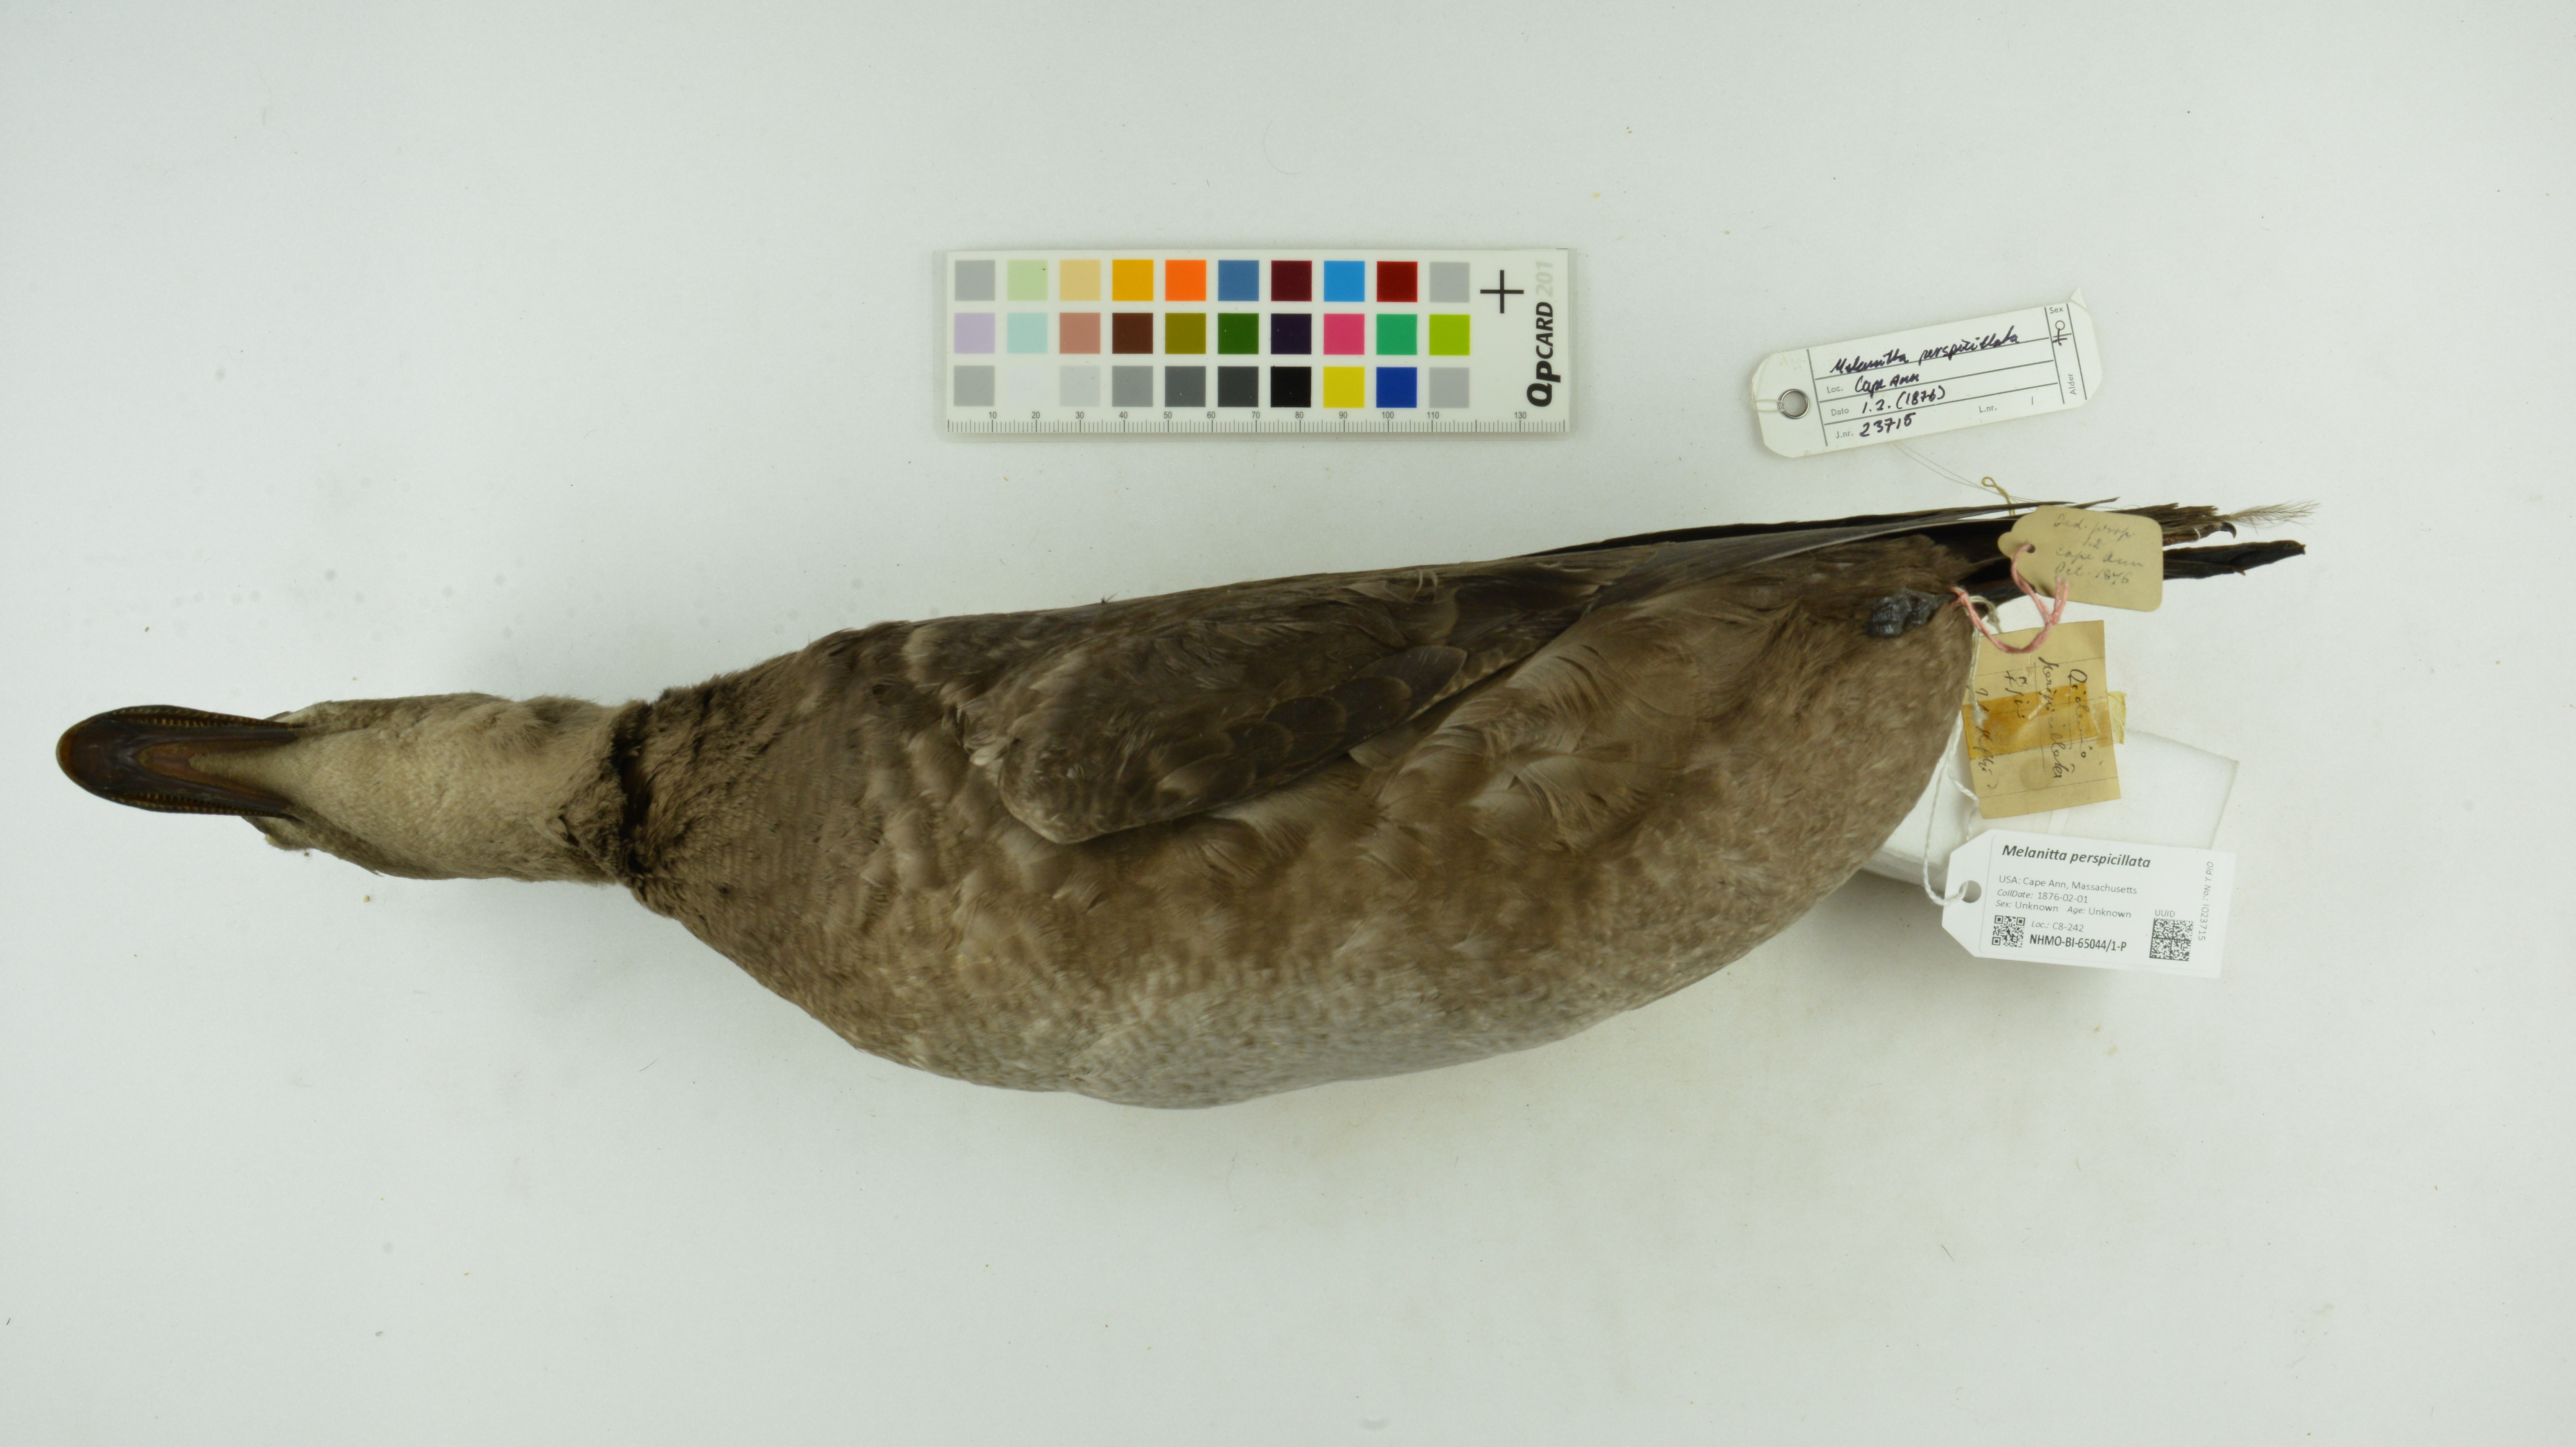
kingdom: Animalia
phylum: Chordata
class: Aves
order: Anseriformes
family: Anatidae
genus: Melanitta
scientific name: Melanitta perspicillata
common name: Surf scoter
